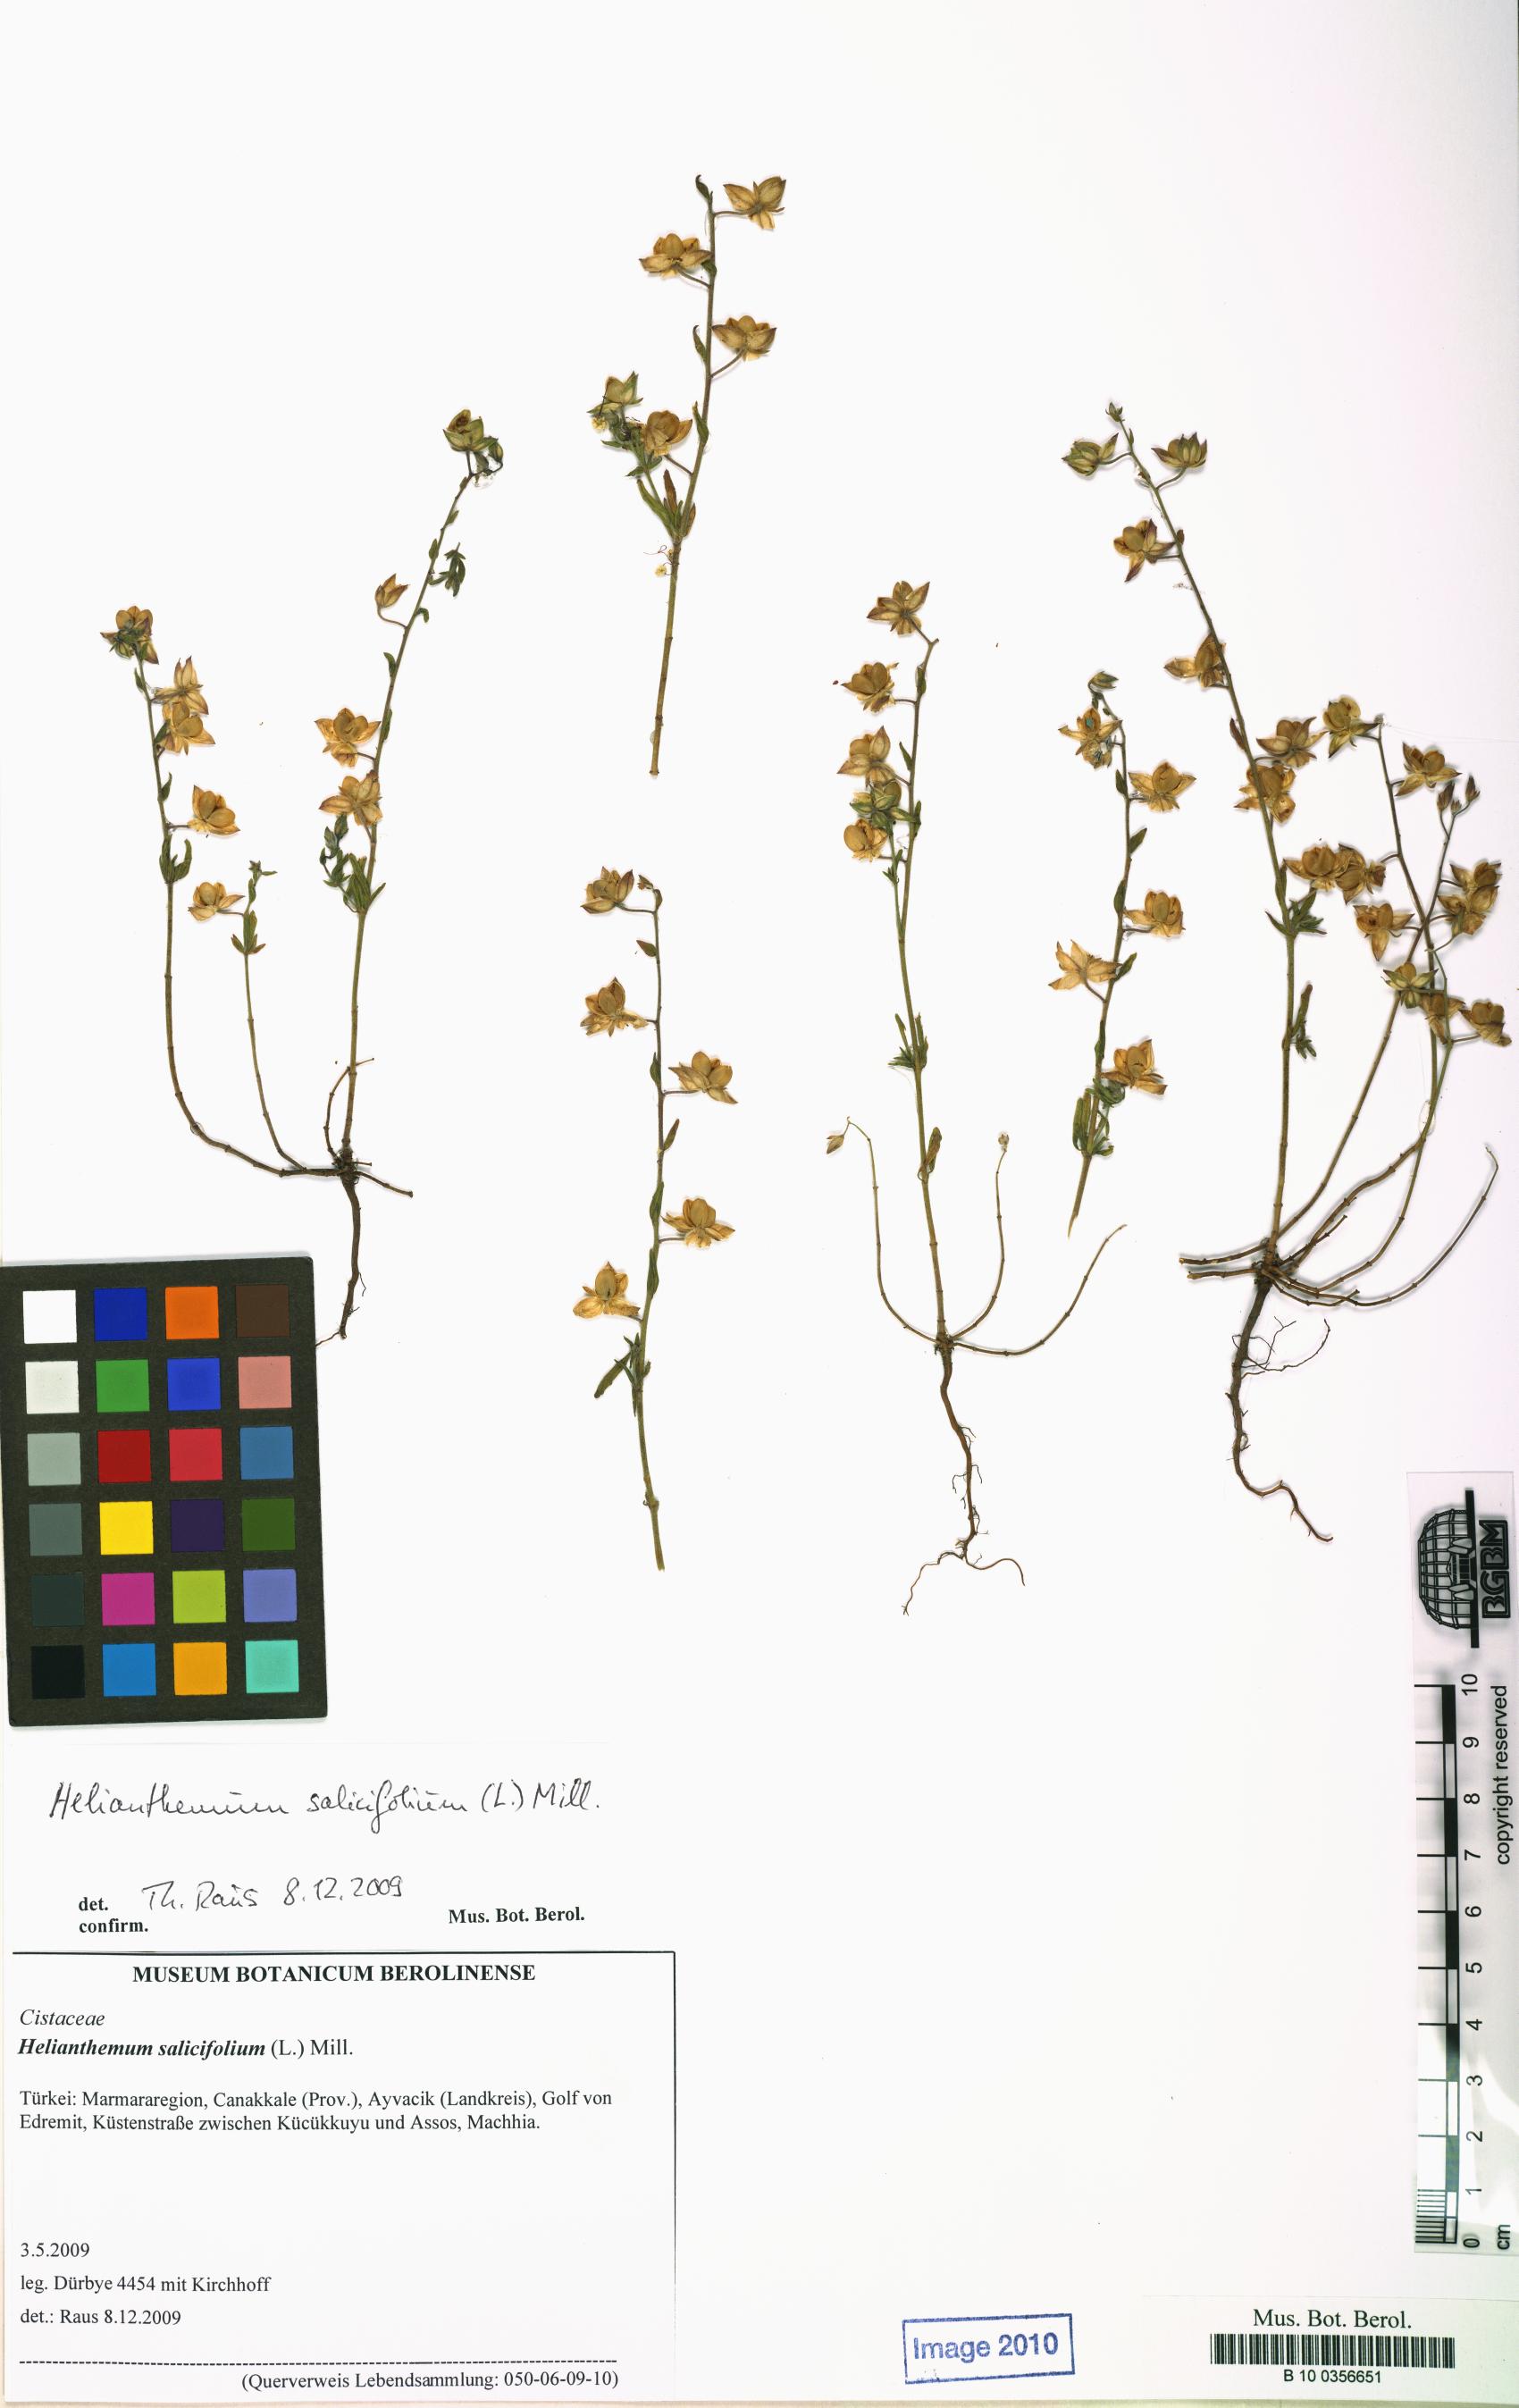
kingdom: Plantae
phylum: Tracheophyta
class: Magnoliopsida
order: Malvales
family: Cistaceae
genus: Helianthemum
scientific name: Helianthemum salicifolium
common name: Willowleaf frostweed
